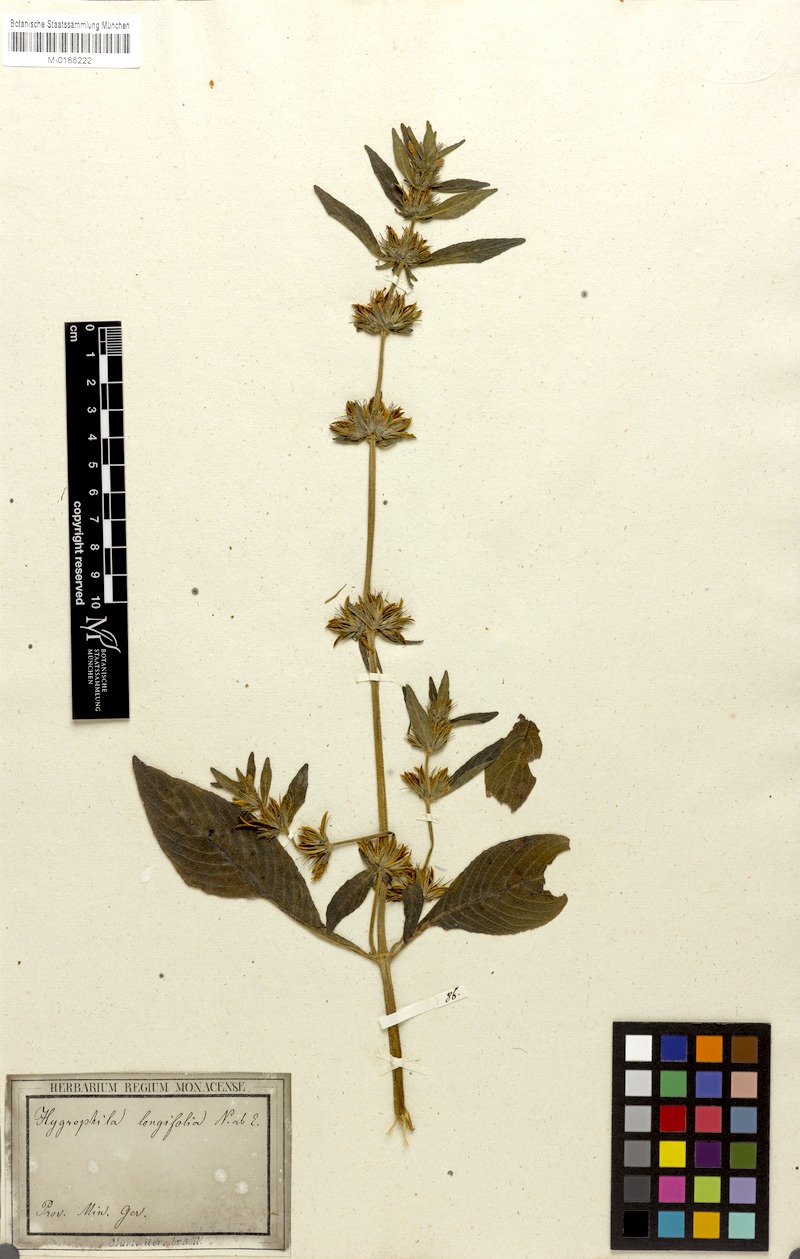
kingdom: Plantae
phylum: Tracheophyta
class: Magnoliopsida
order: Lamiales
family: Acanthaceae
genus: Hygrophila
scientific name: Hygrophila costata
